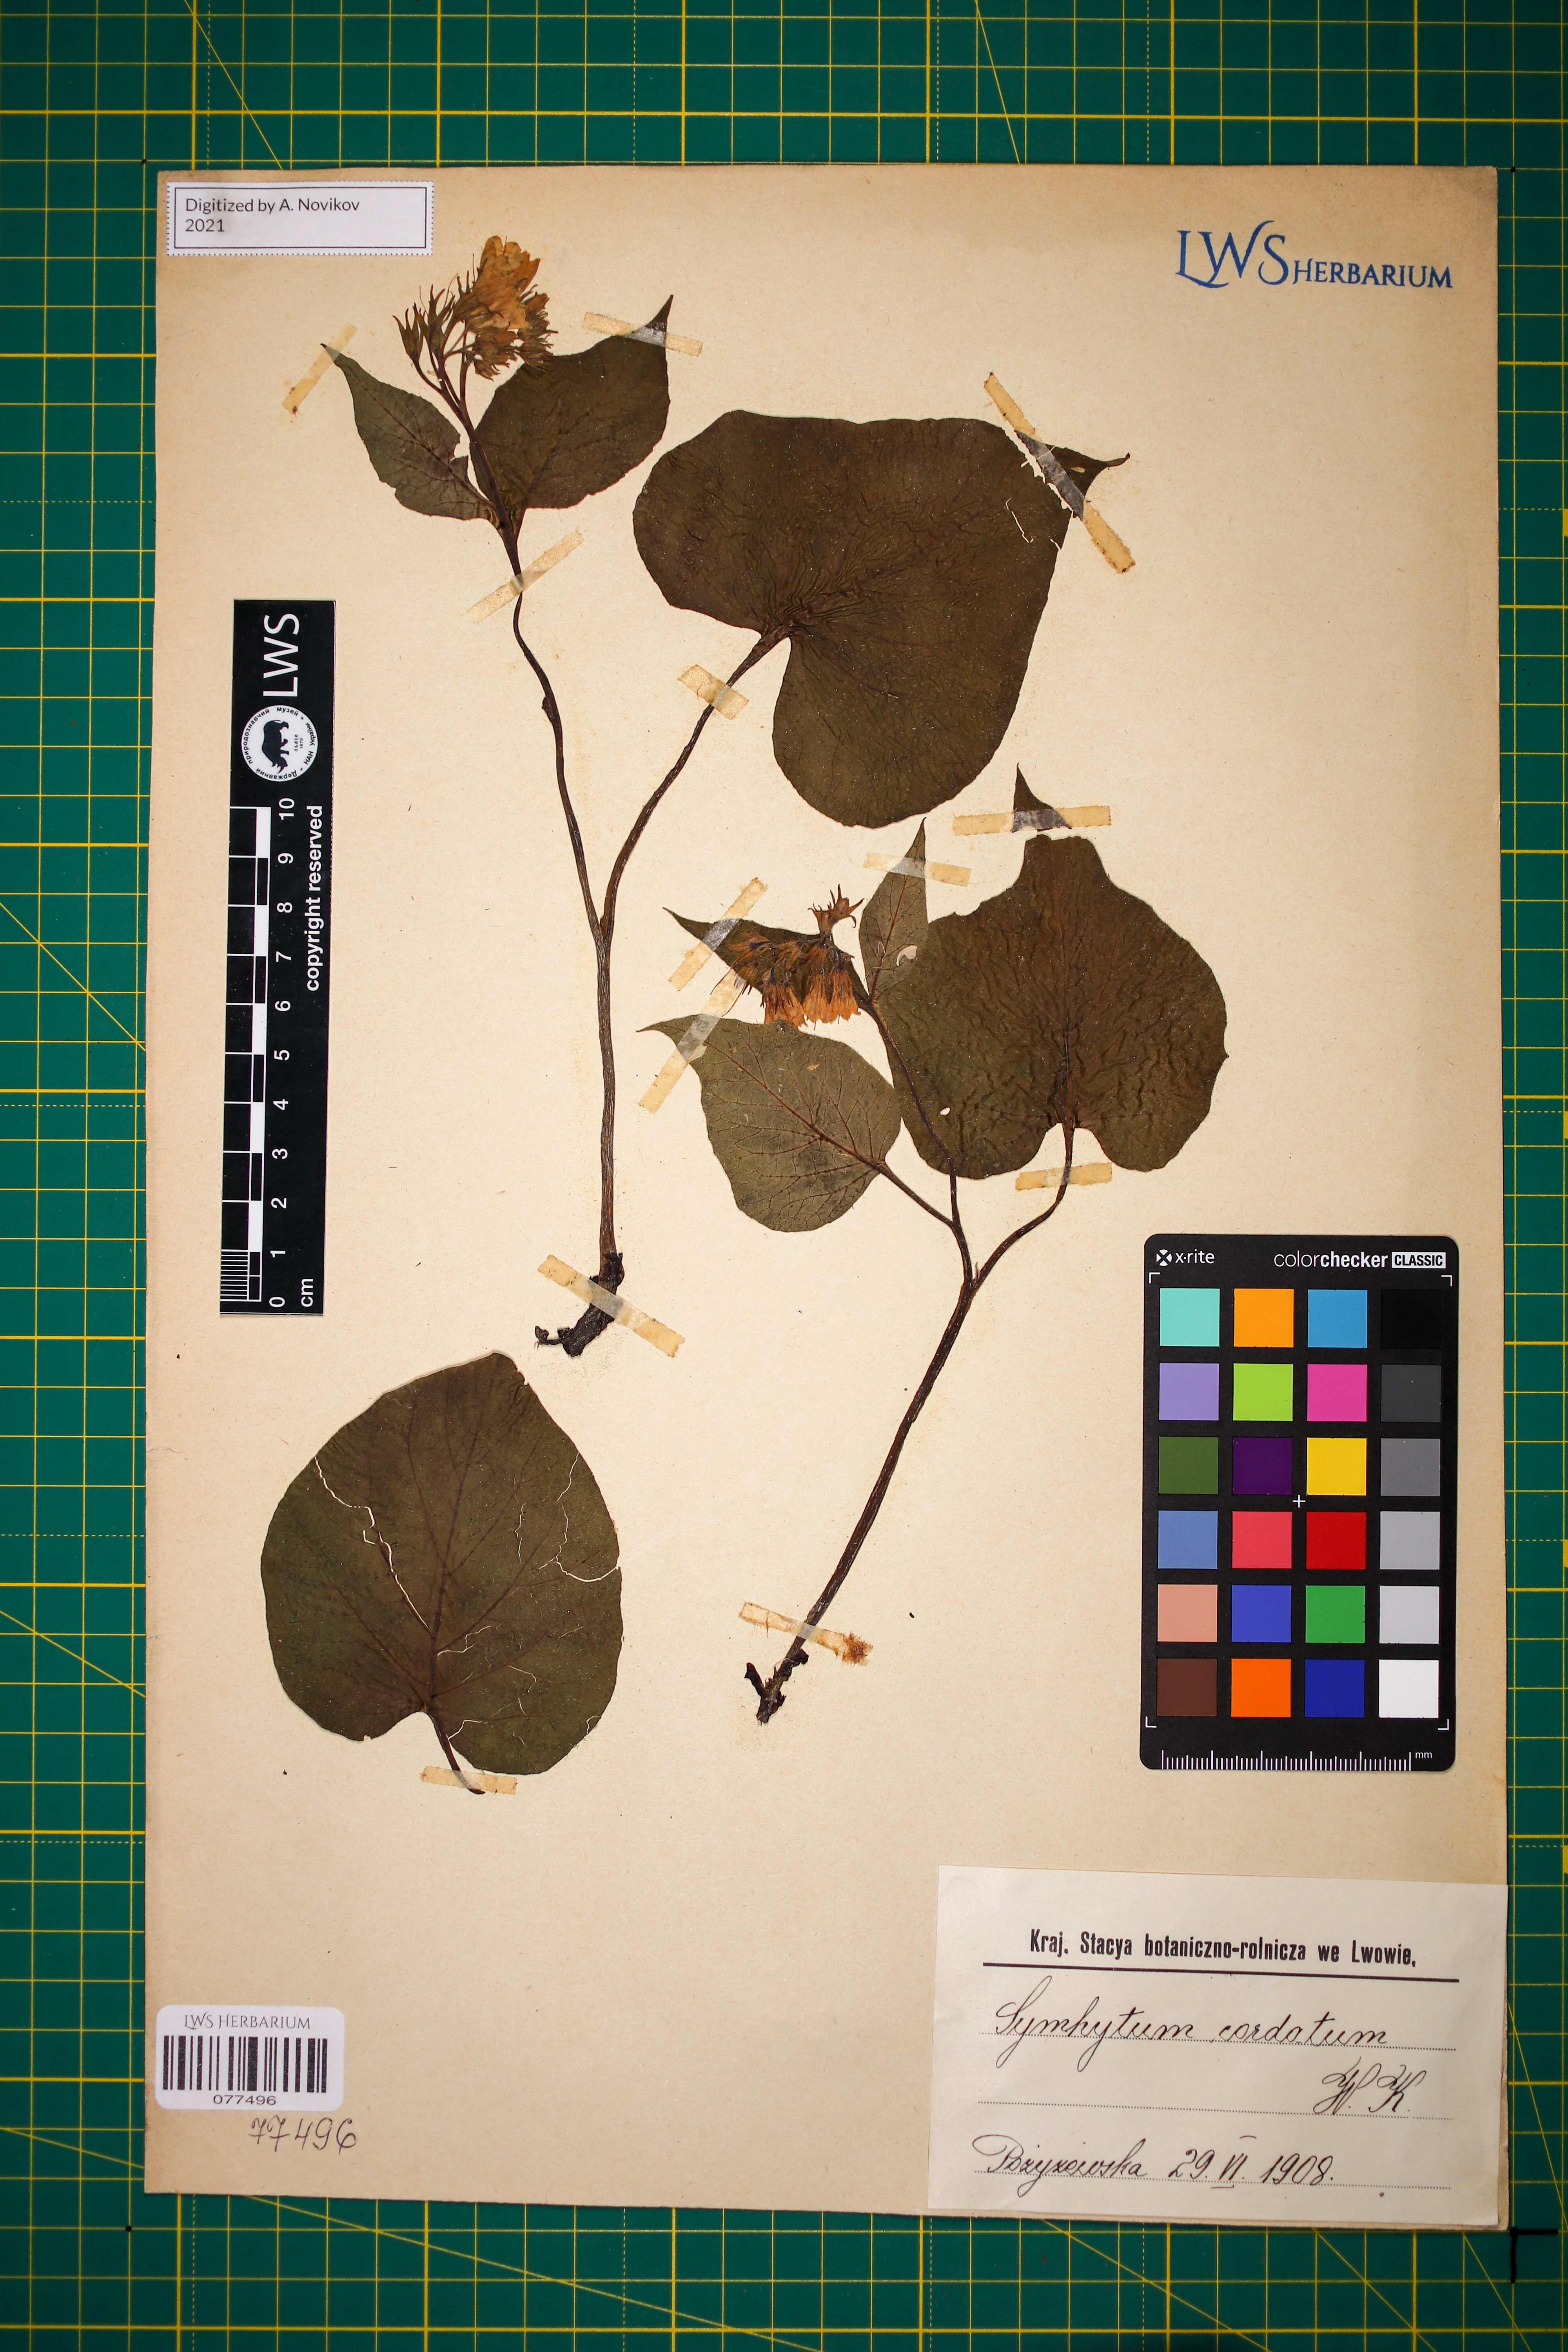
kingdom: Plantae
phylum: Tracheophyta
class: Magnoliopsida
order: Boraginales
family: Boraginaceae
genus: Symphytum
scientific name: Symphytum cordatum
